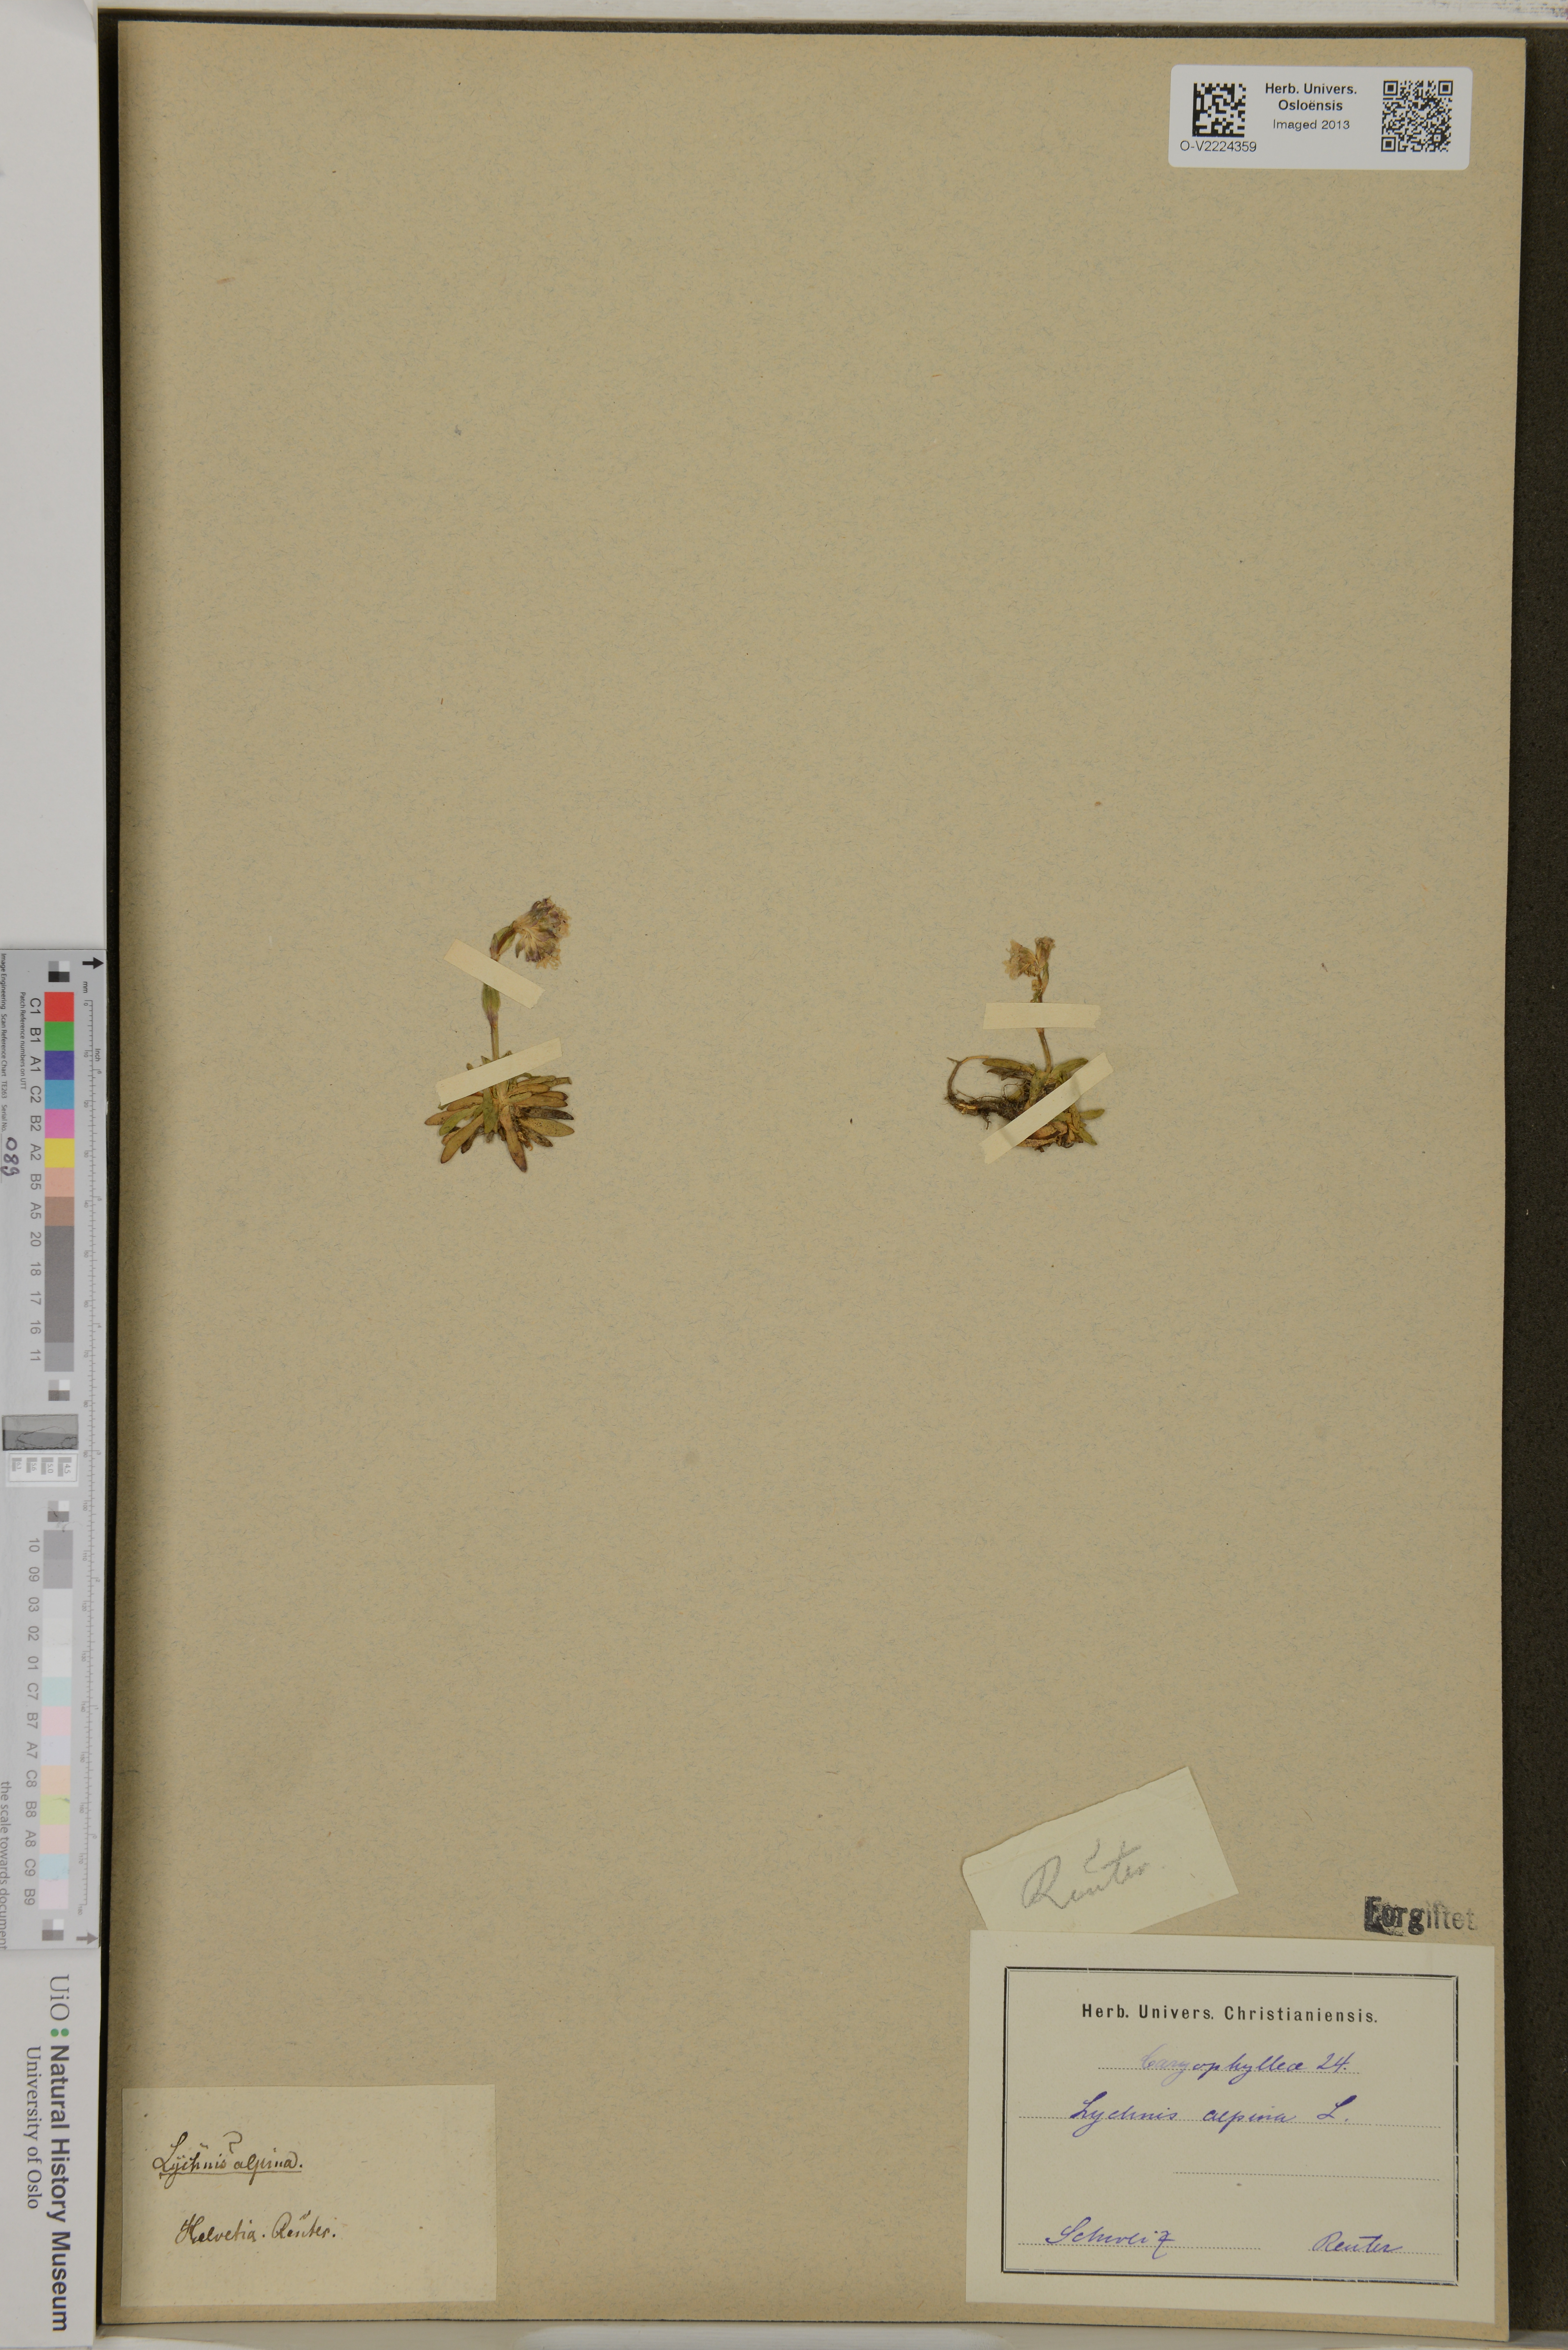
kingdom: Plantae
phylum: Tracheophyta
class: Magnoliopsida
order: Caryophyllales
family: Caryophyllaceae
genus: Viscaria
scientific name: Viscaria alpina
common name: Alpine campion
